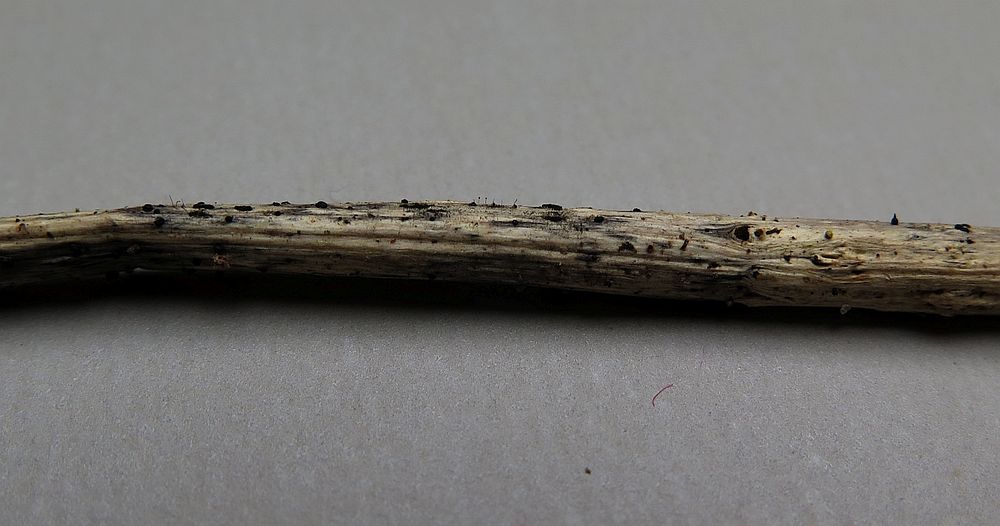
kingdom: Fungi
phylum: Ascomycota
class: Dothideomycetes
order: Pleosporales
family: Leptosphaeriaceae
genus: Leptosphaeria
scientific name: Leptosphaeria doliolum
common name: skærm-kulkegle
